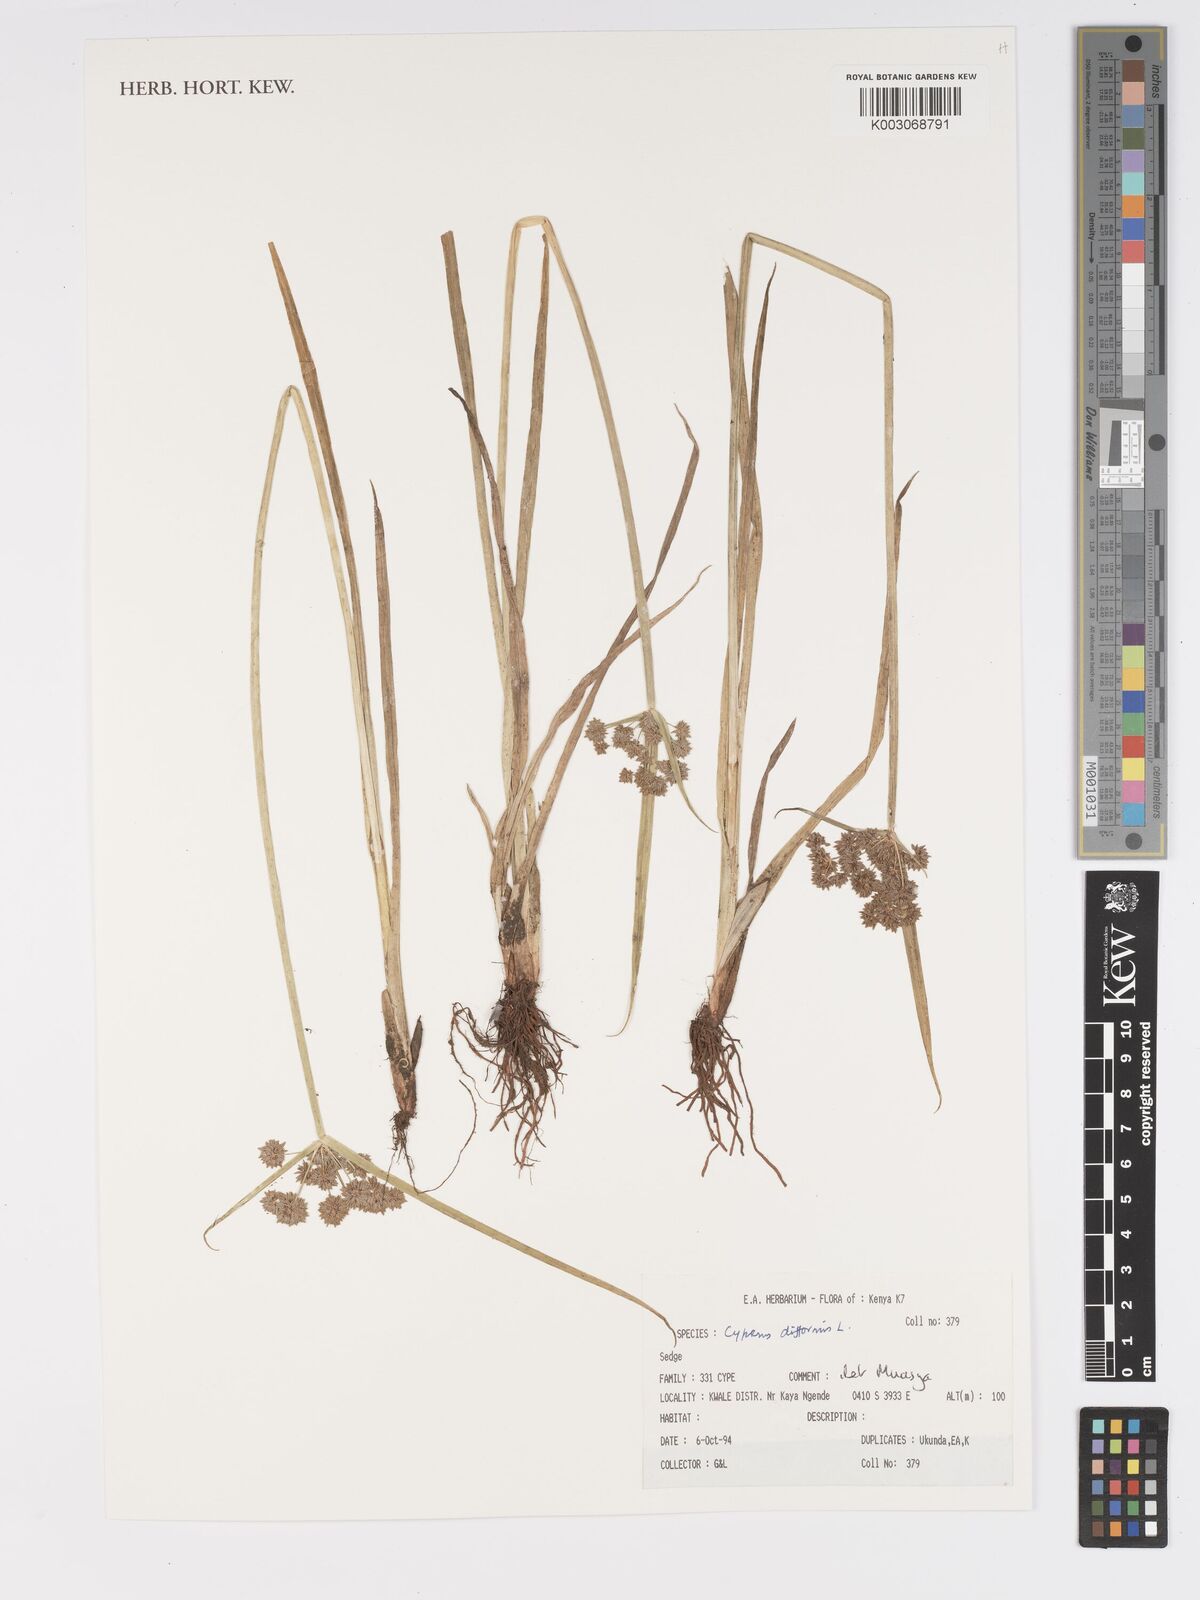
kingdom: Plantae
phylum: Tracheophyta
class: Liliopsida
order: Poales
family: Cyperaceae
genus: Cyperus
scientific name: Cyperus difformis
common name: Variable flatsedge
